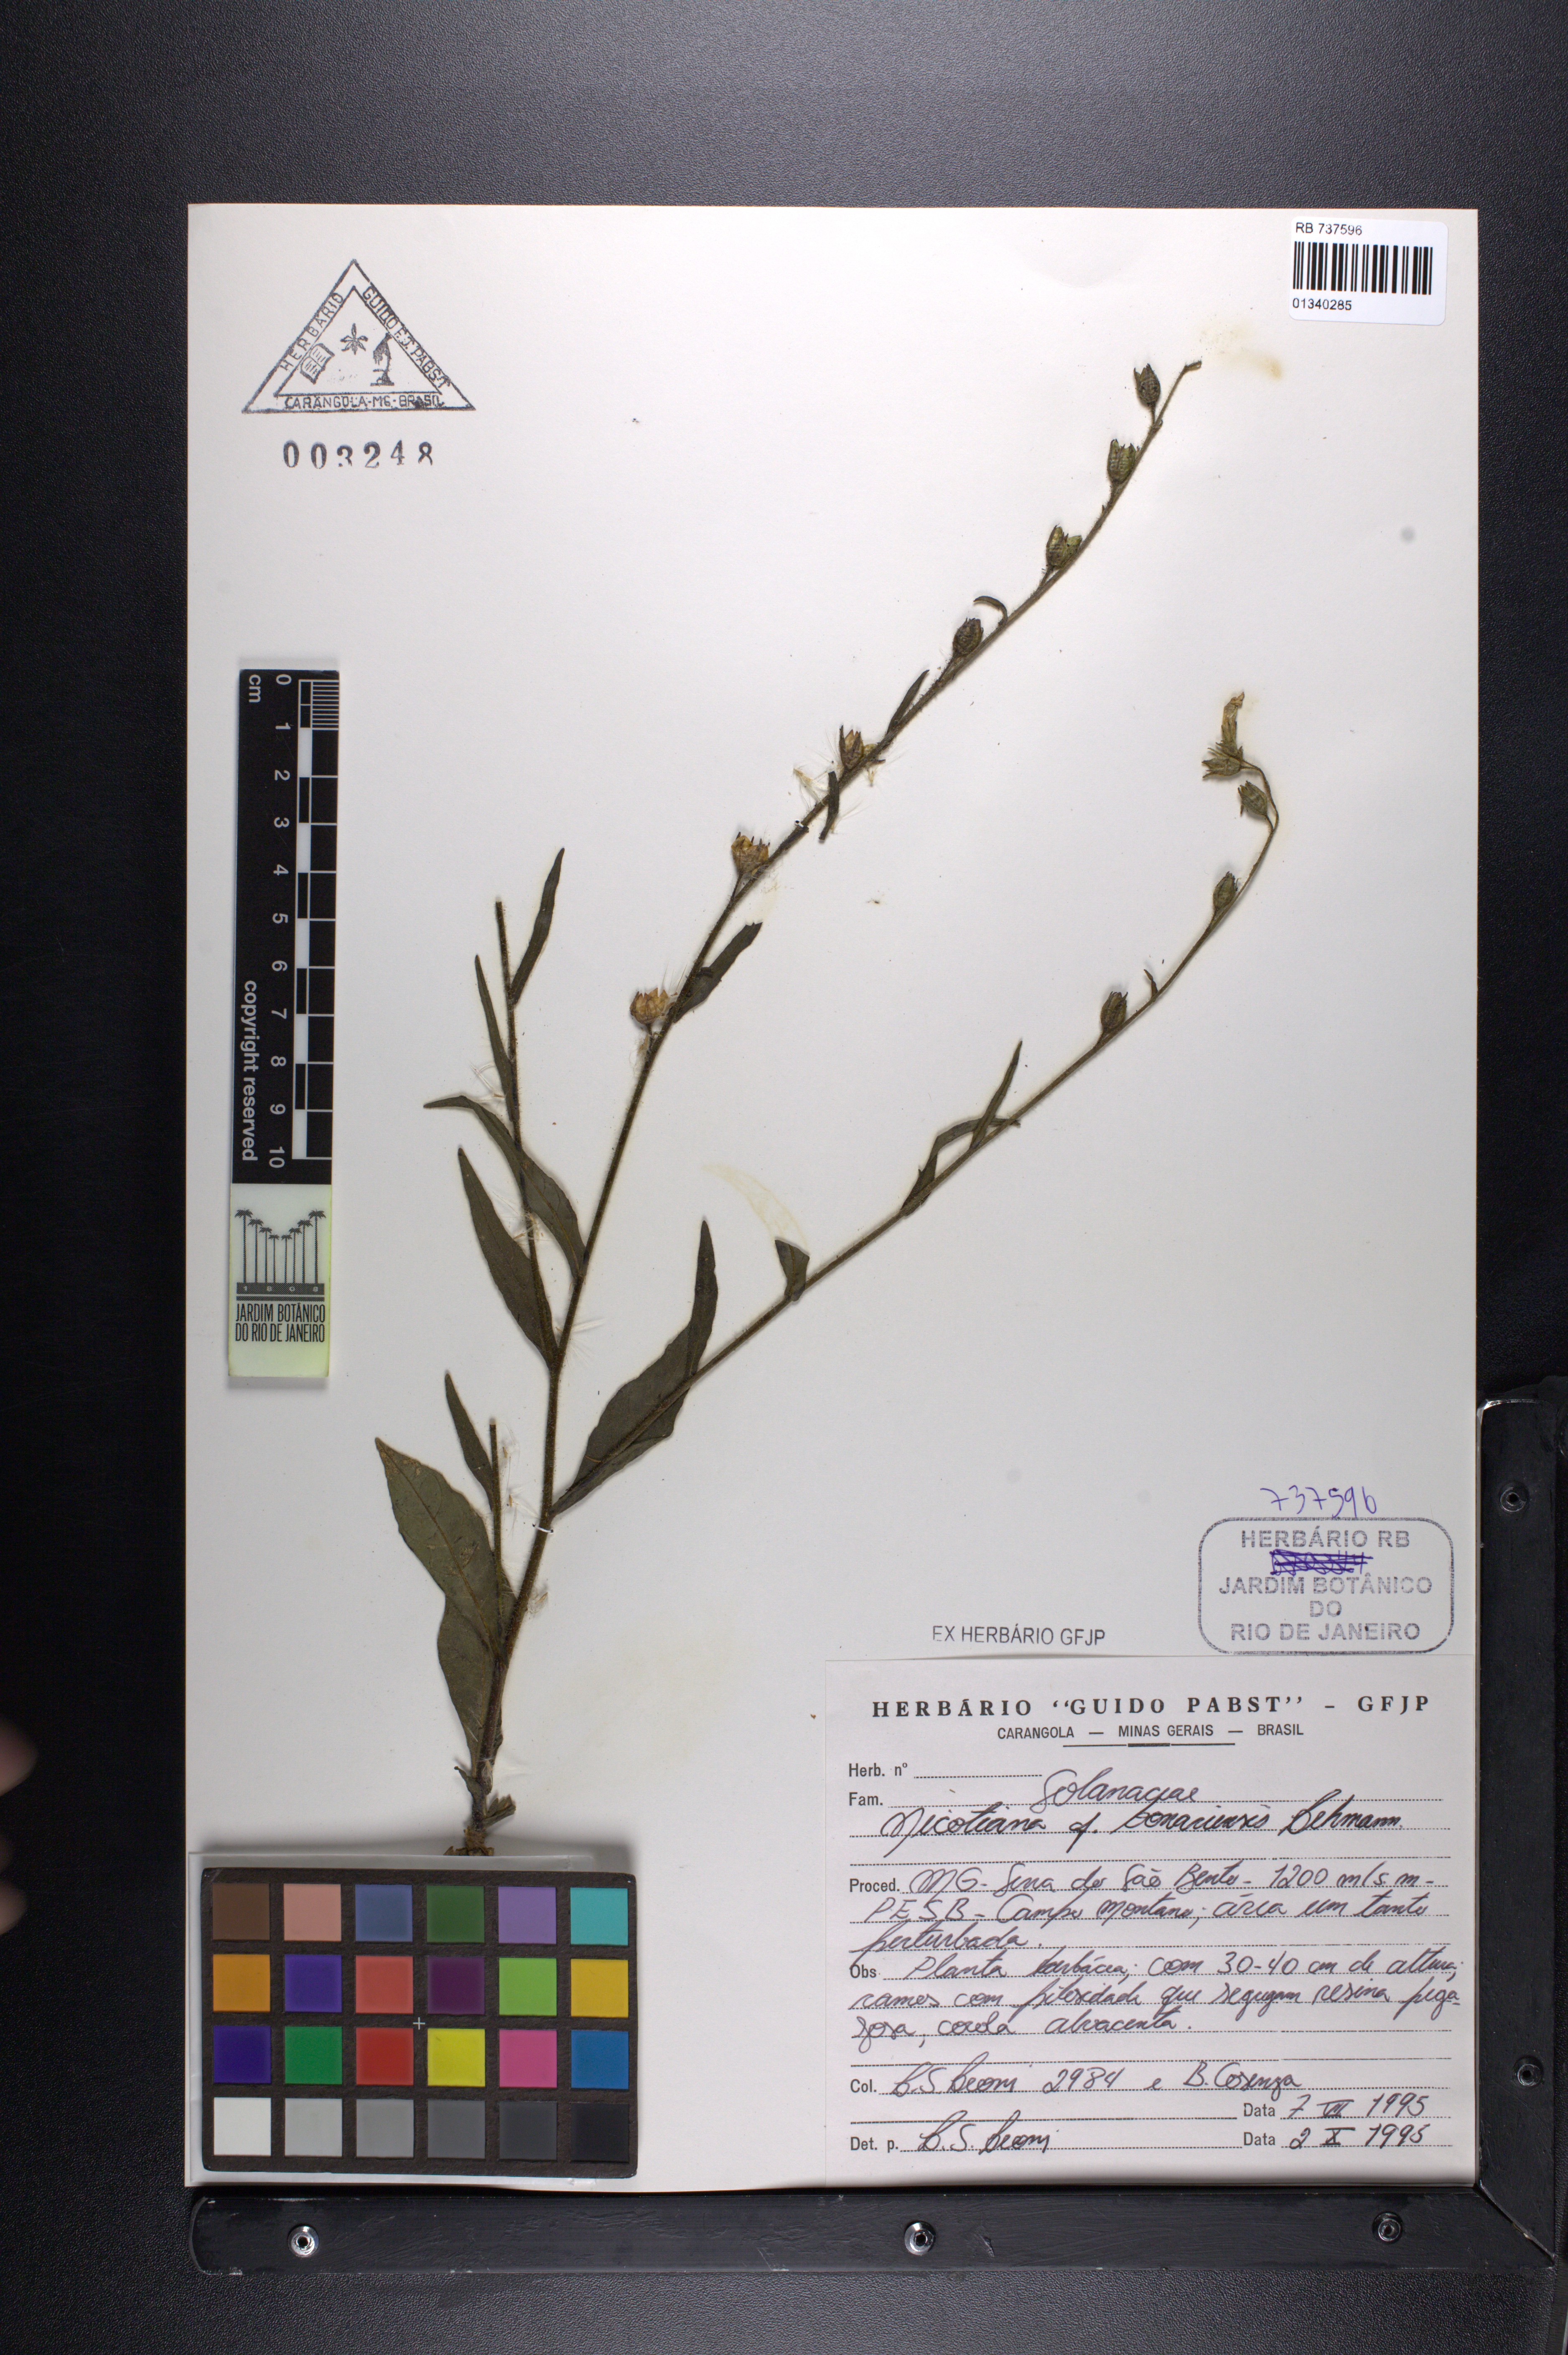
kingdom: Plantae
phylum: Tracheophyta
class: Magnoliopsida
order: Solanales
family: Solanaceae
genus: Nicotiana
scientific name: Nicotiana bonariensis
